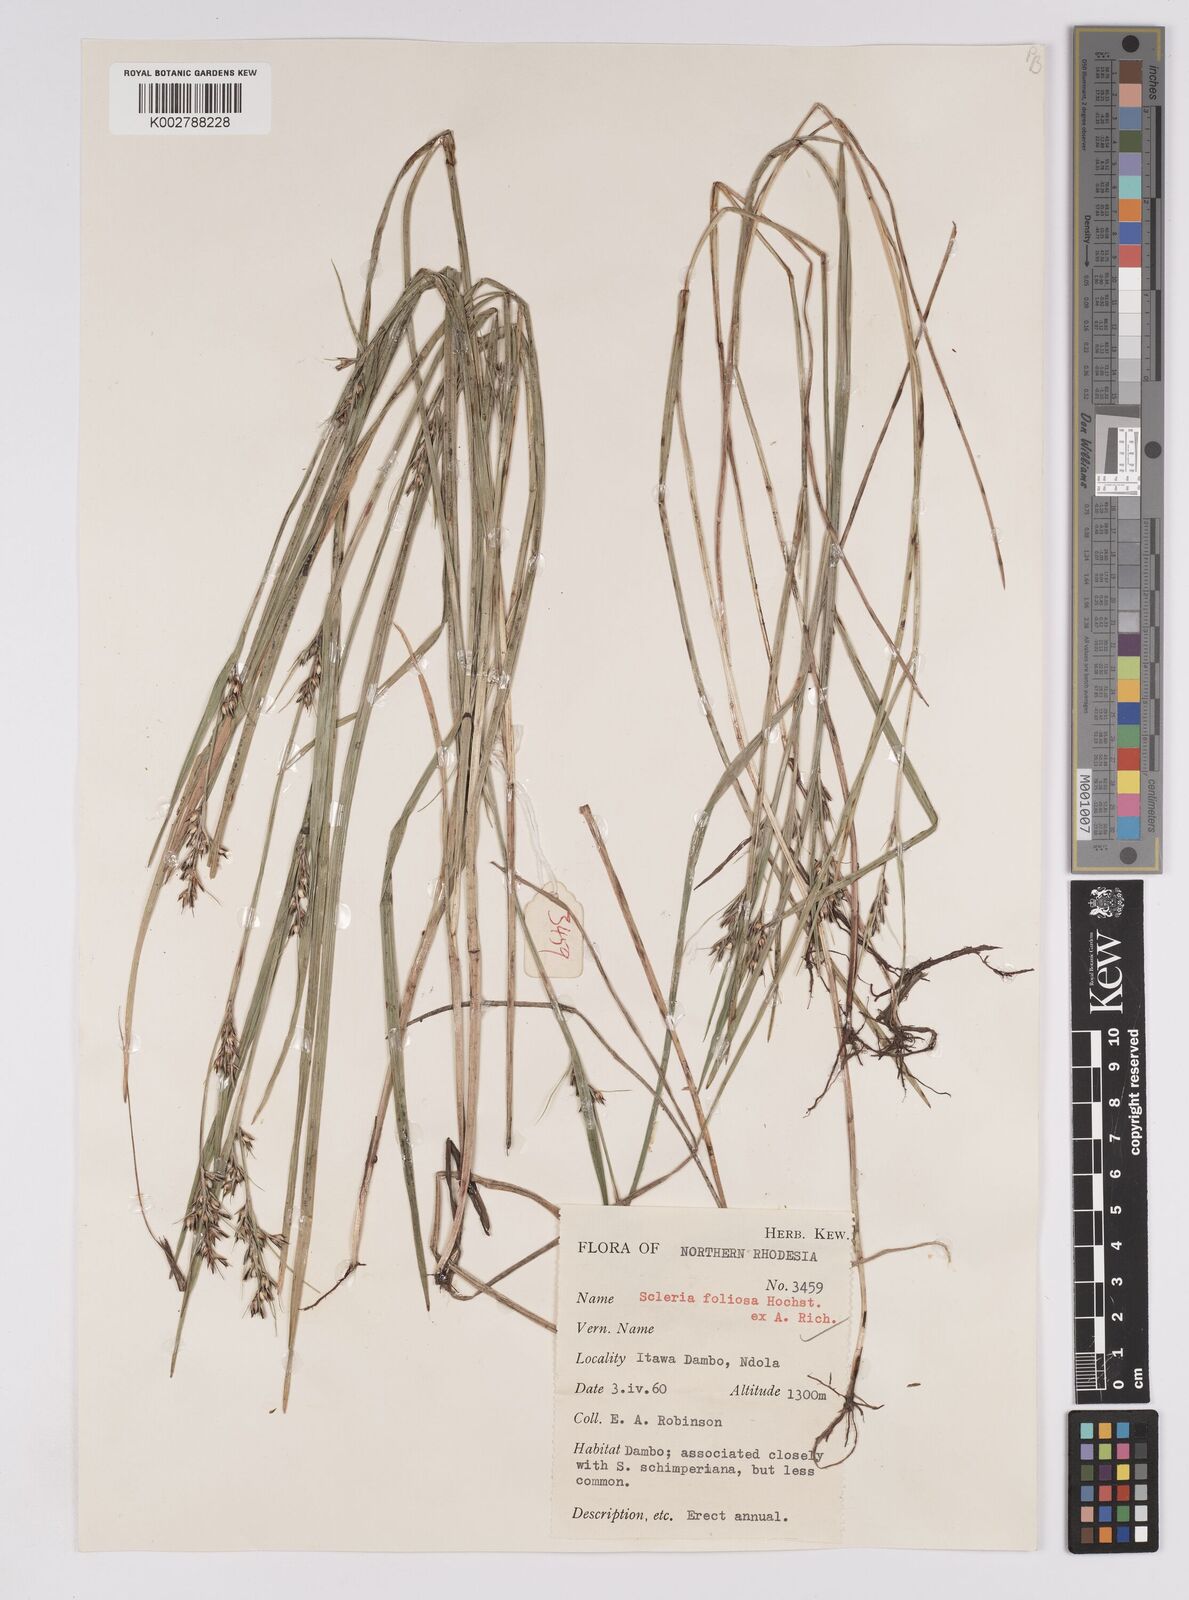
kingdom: Plantae
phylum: Tracheophyta
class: Liliopsida
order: Poales
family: Cyperaceae
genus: Scleria
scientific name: Scleria foliosa
